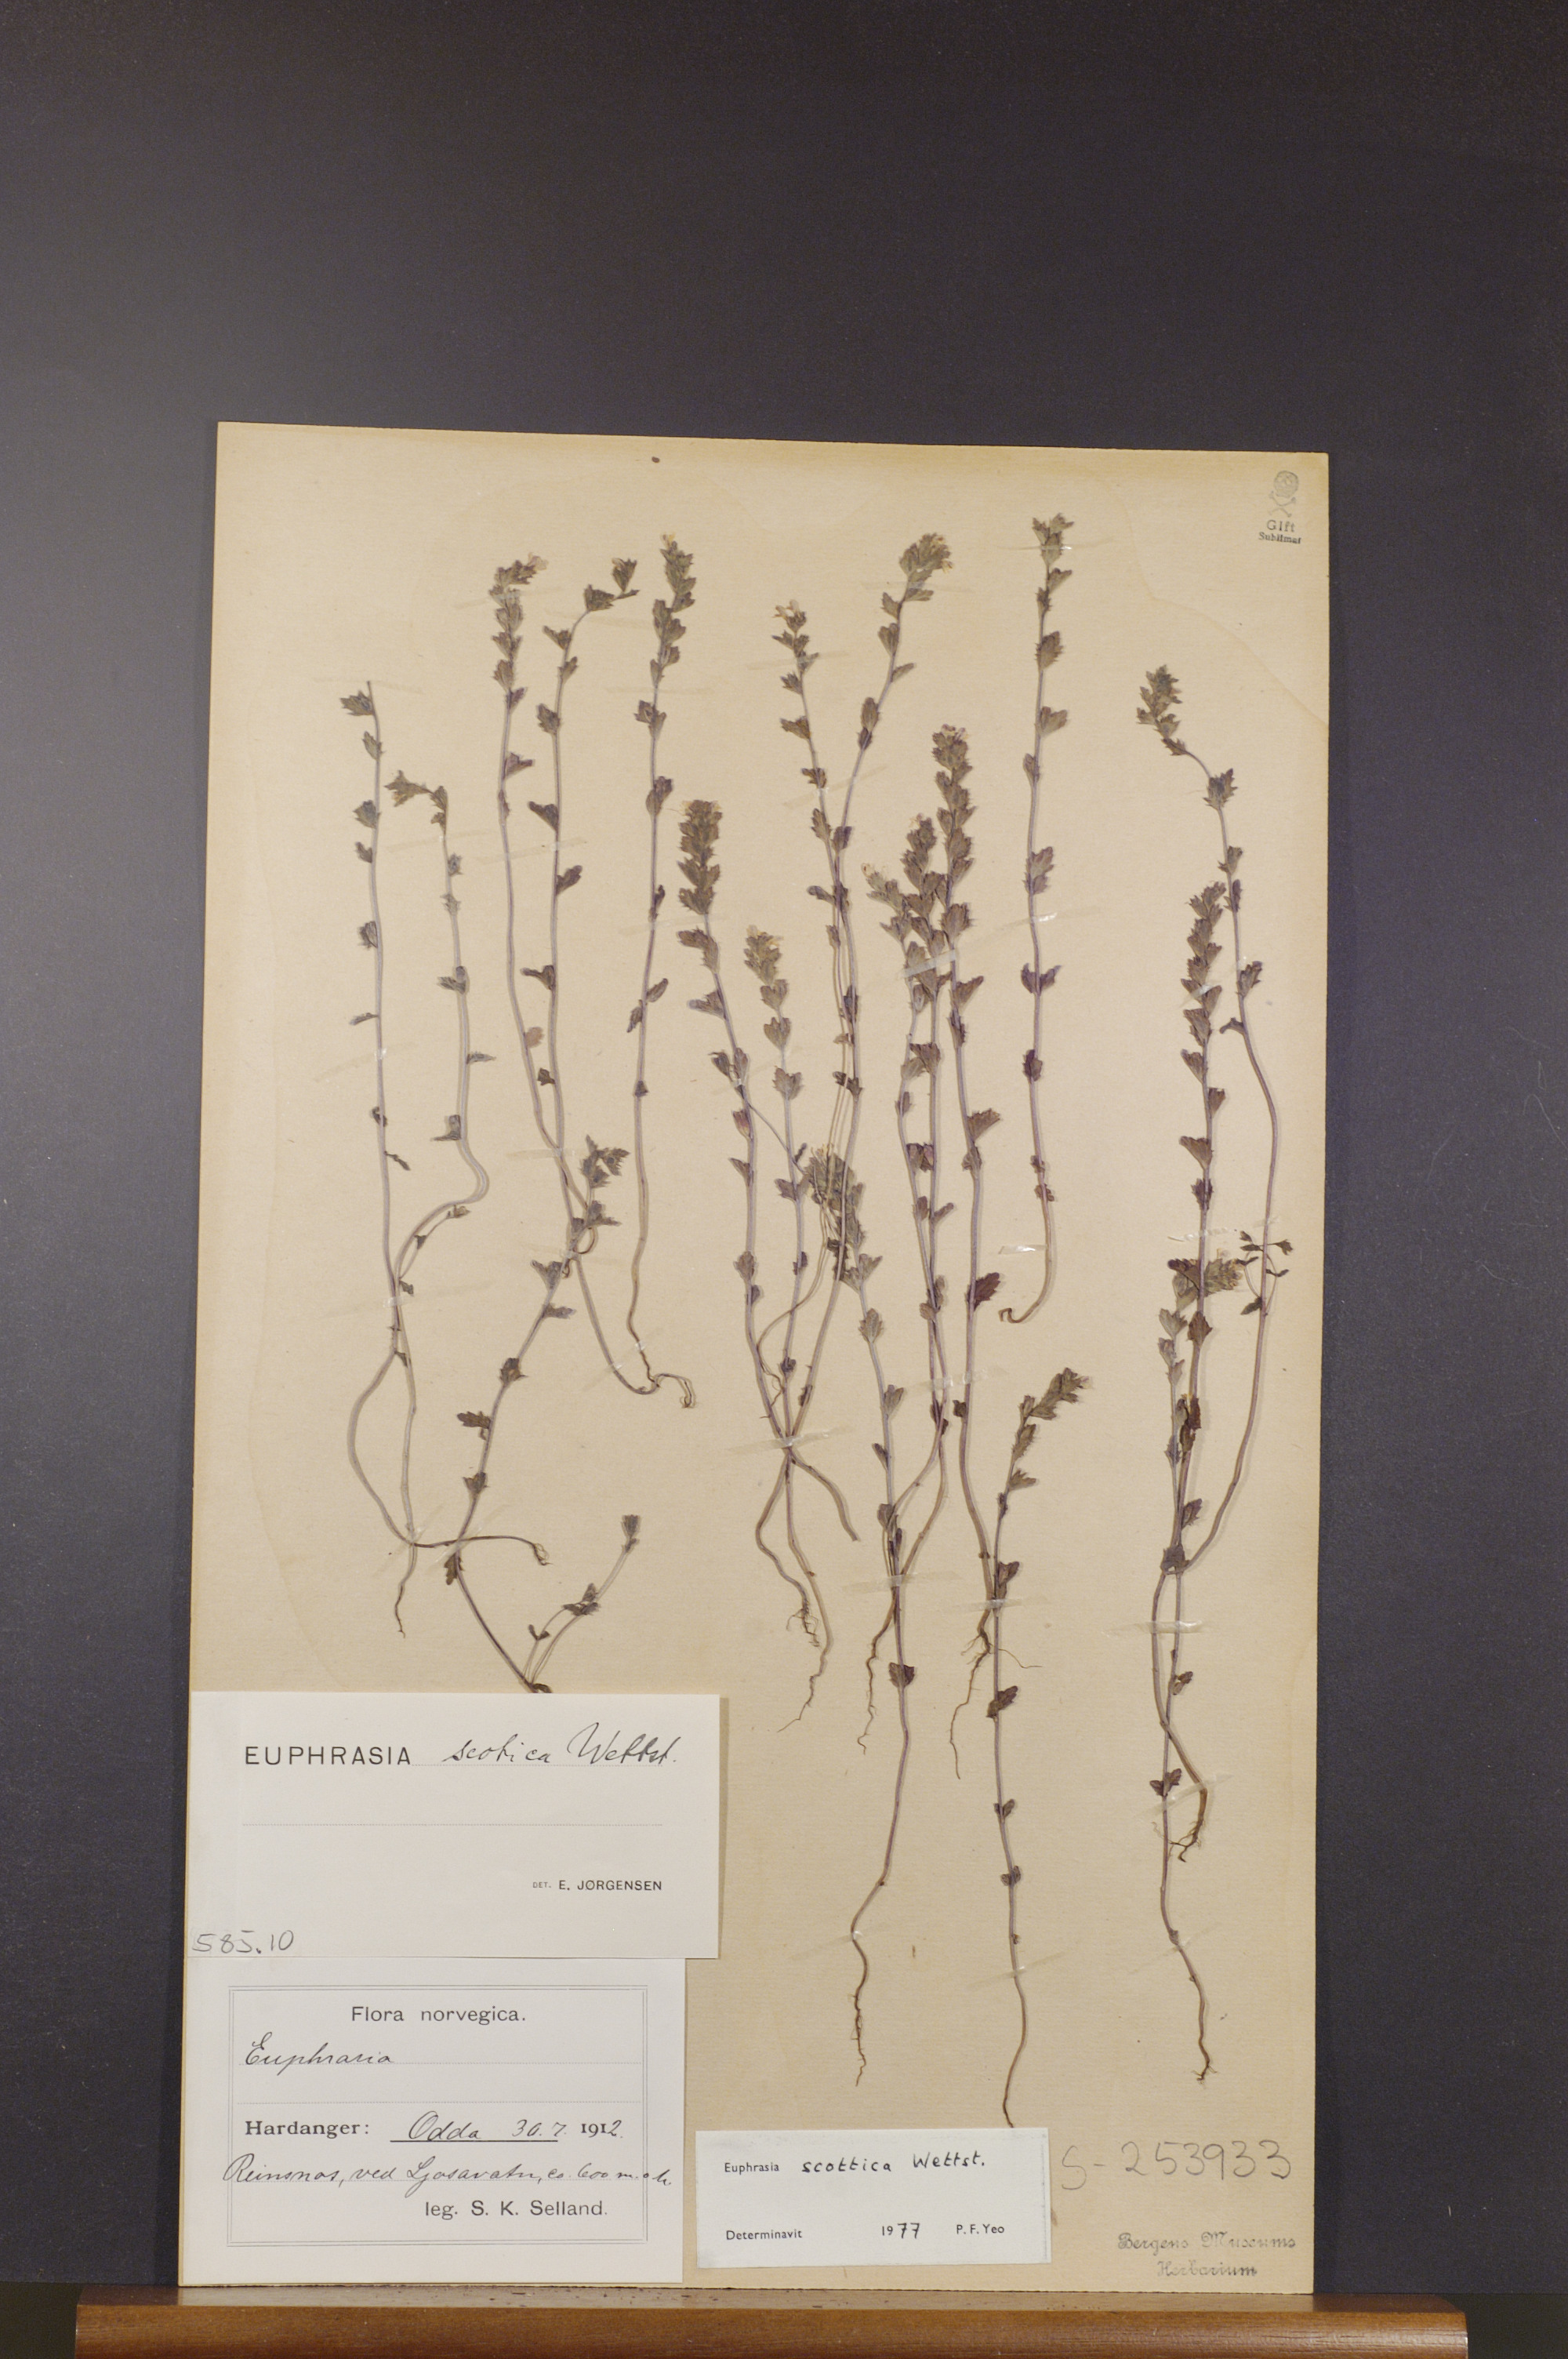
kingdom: Plantae
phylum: Tracheophyta
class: Magnoliopsida
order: Lamiales
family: Orobanchaceae
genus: Euphrasia
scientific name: Euphrasia scottica
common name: Slender scottish eyebright
